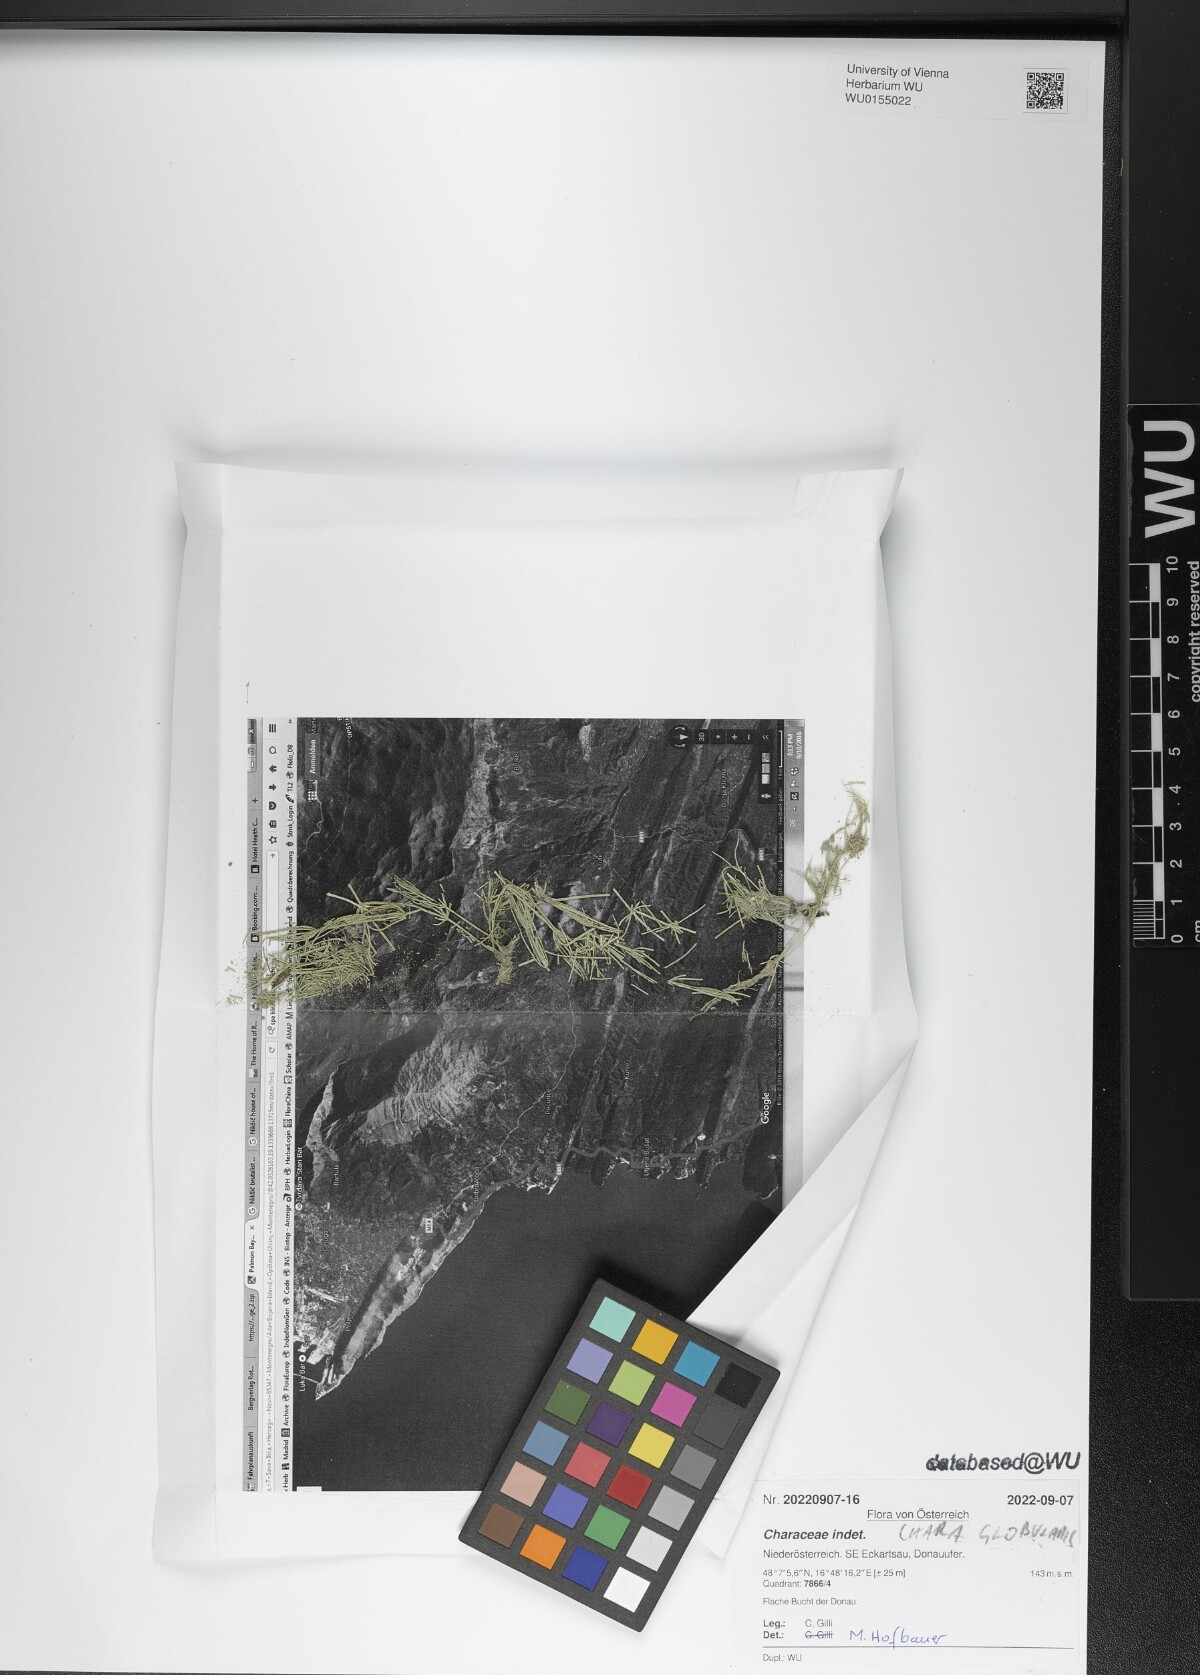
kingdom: Plantae
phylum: Charophyta
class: Charophyceae
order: Charales
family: Characeae
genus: Chara
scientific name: Chara globularis
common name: Fragile stonewort
